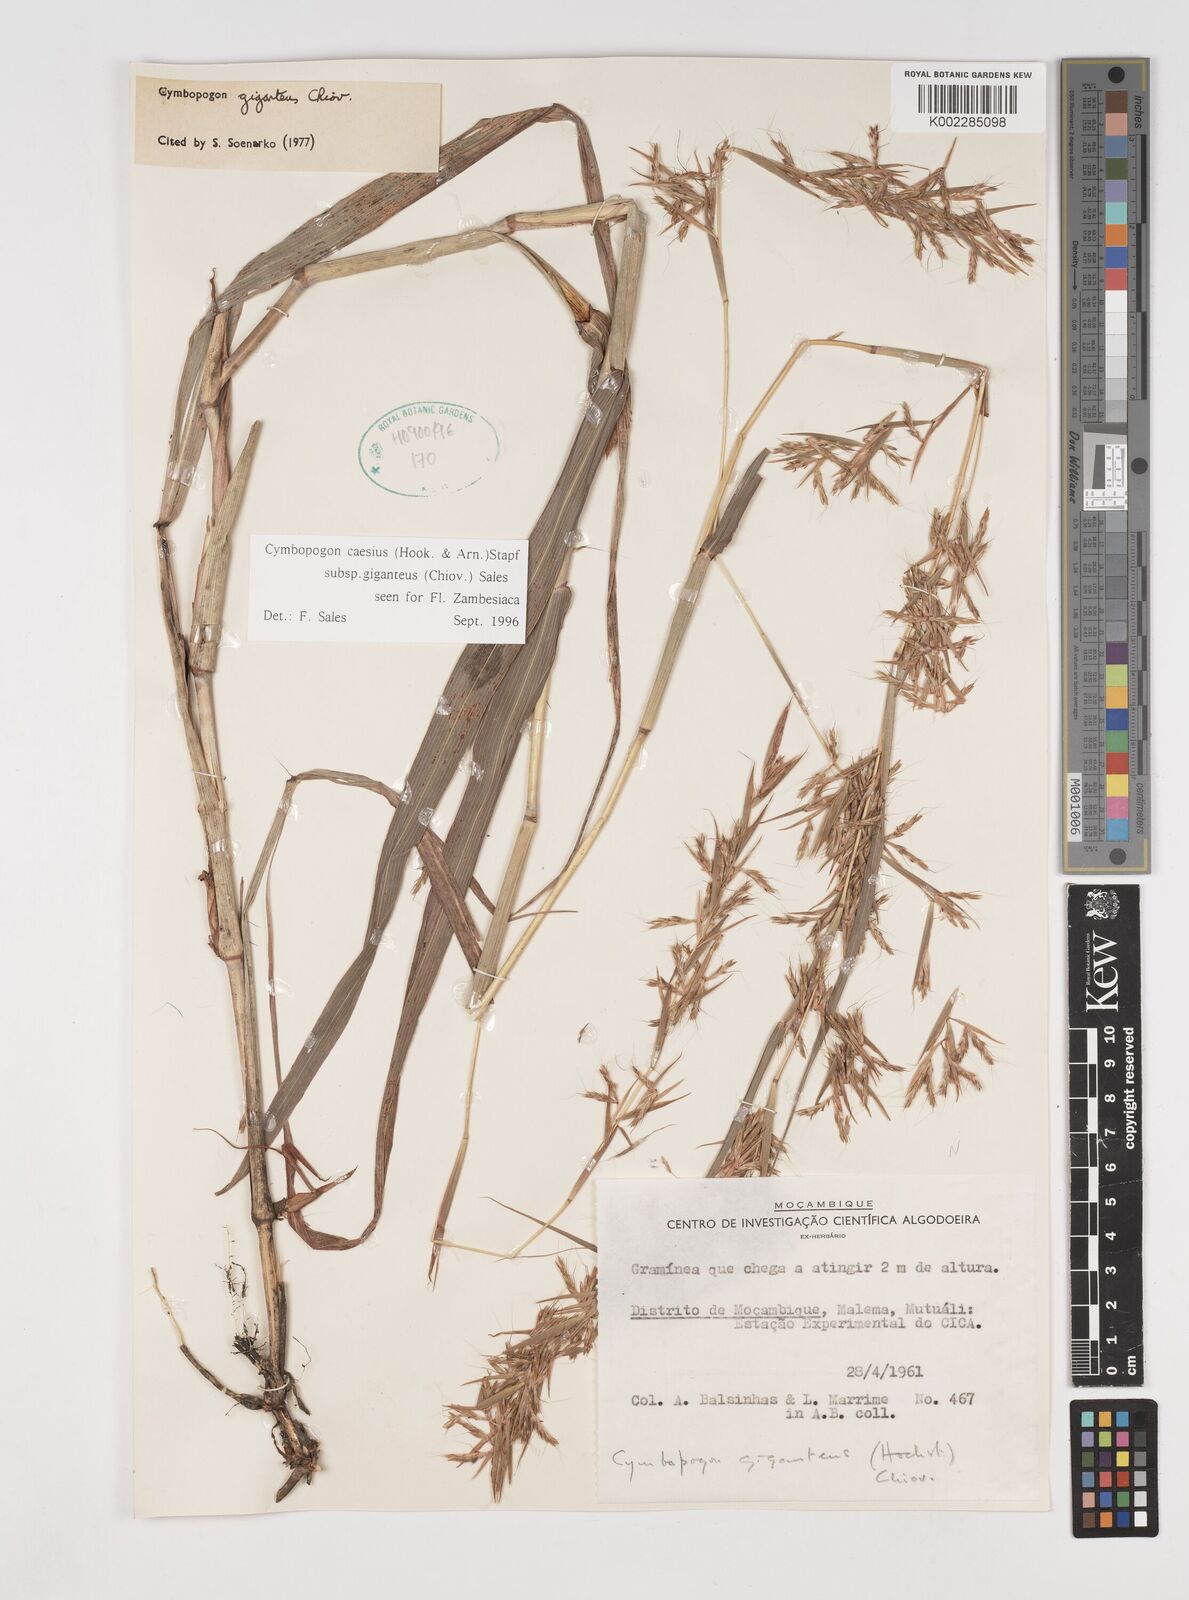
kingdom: Plantae
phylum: Tracheophyta
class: Liliopsida
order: Poales
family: Poaceae
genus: Cymbopogon
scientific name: Cymbopogon giganteus
